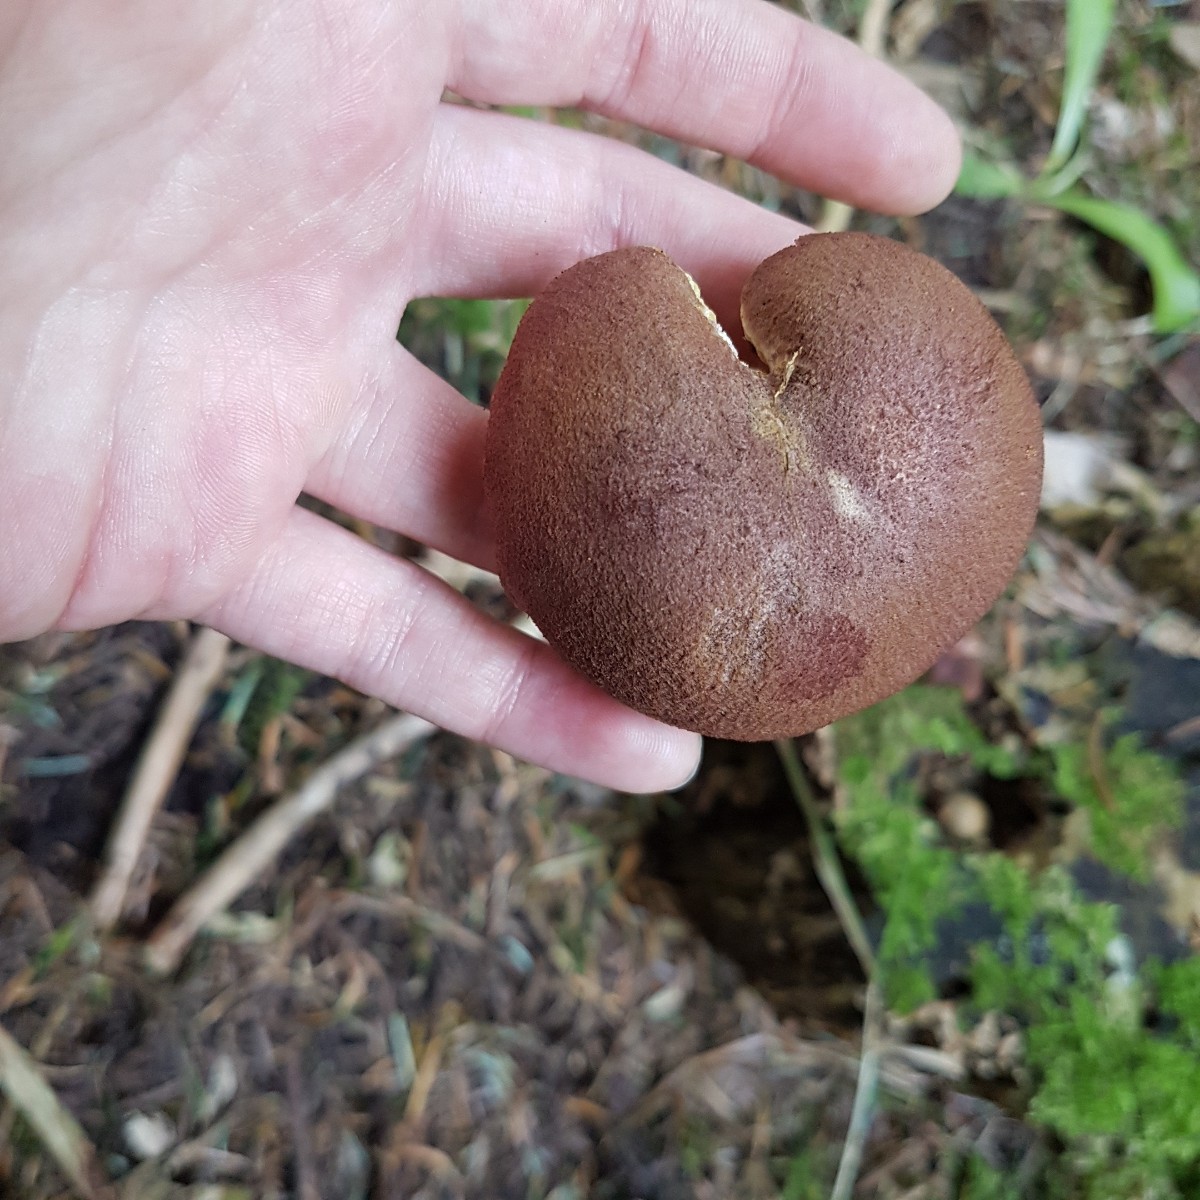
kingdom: Fungi
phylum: Basidiomycota
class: Agaricomycetes
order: Agaricales
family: Tricholomataceae
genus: Tricholomopsis
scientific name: Tricholomopsis rutilans
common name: purpur-væbnerhat
